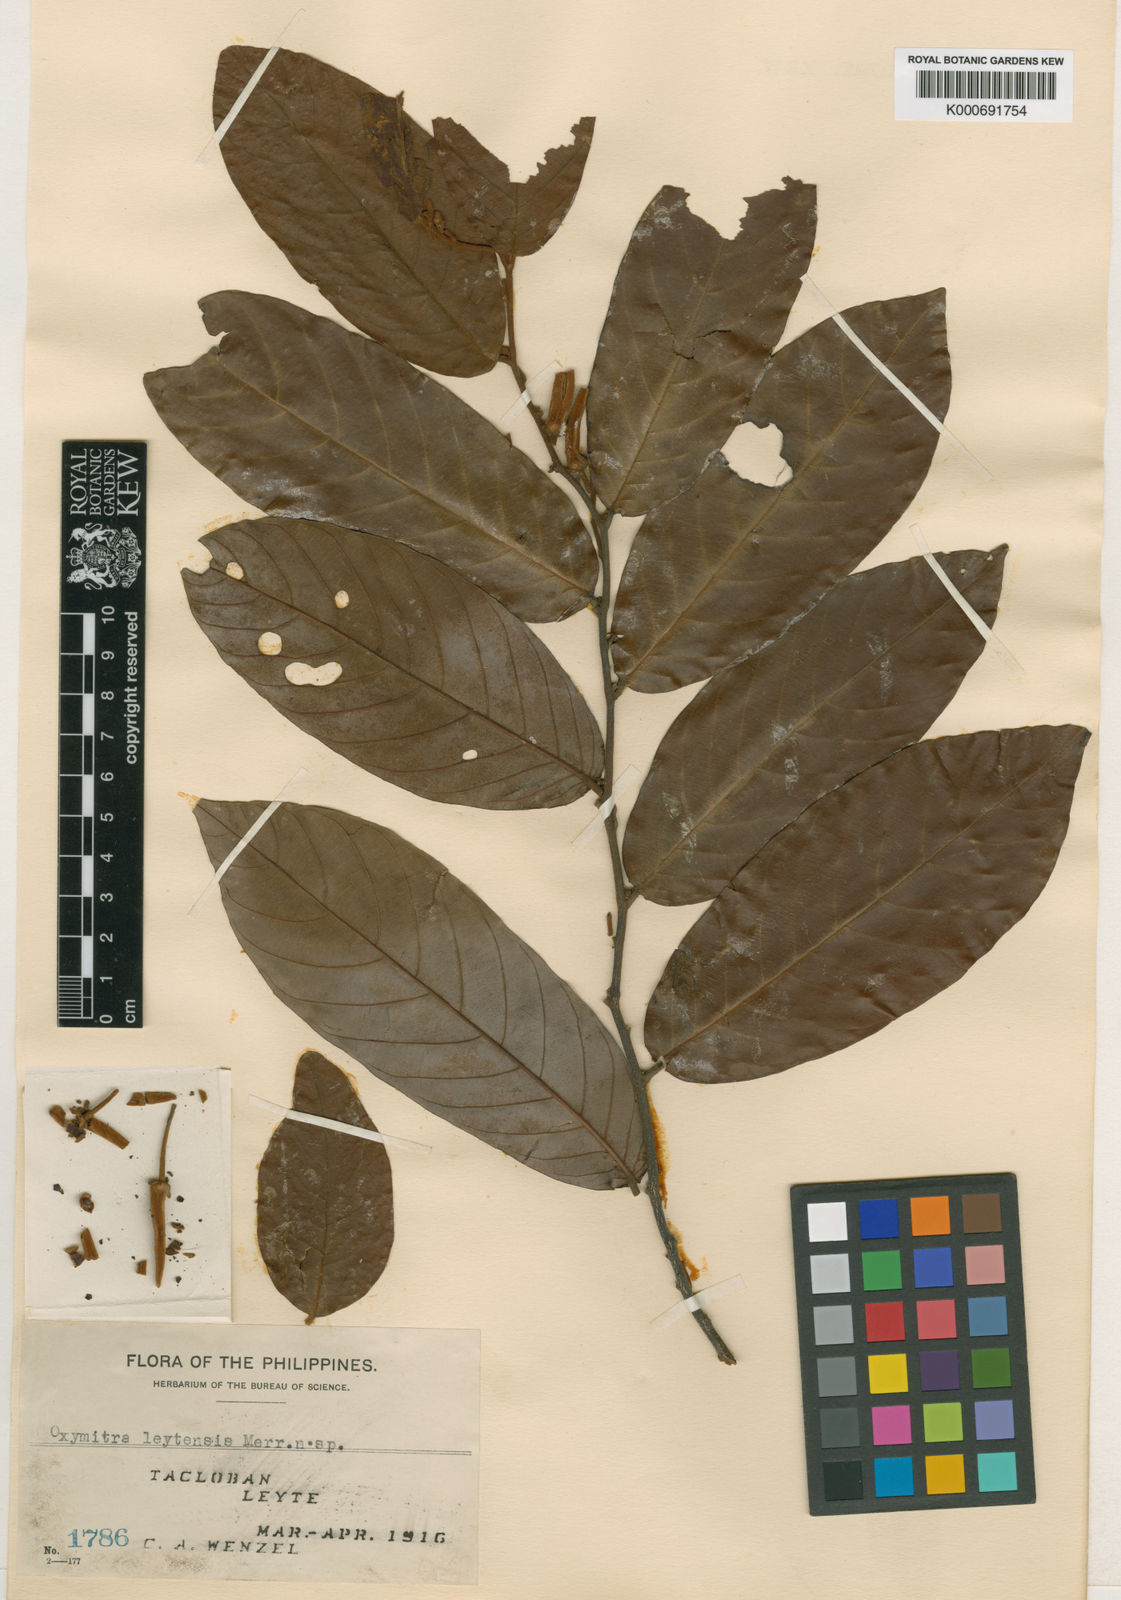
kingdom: Plantae
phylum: Tracheophyta
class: Magnoliopsida
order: Magnoliales
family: Annonaceae
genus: Friesodielsia
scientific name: Friesodielsia
